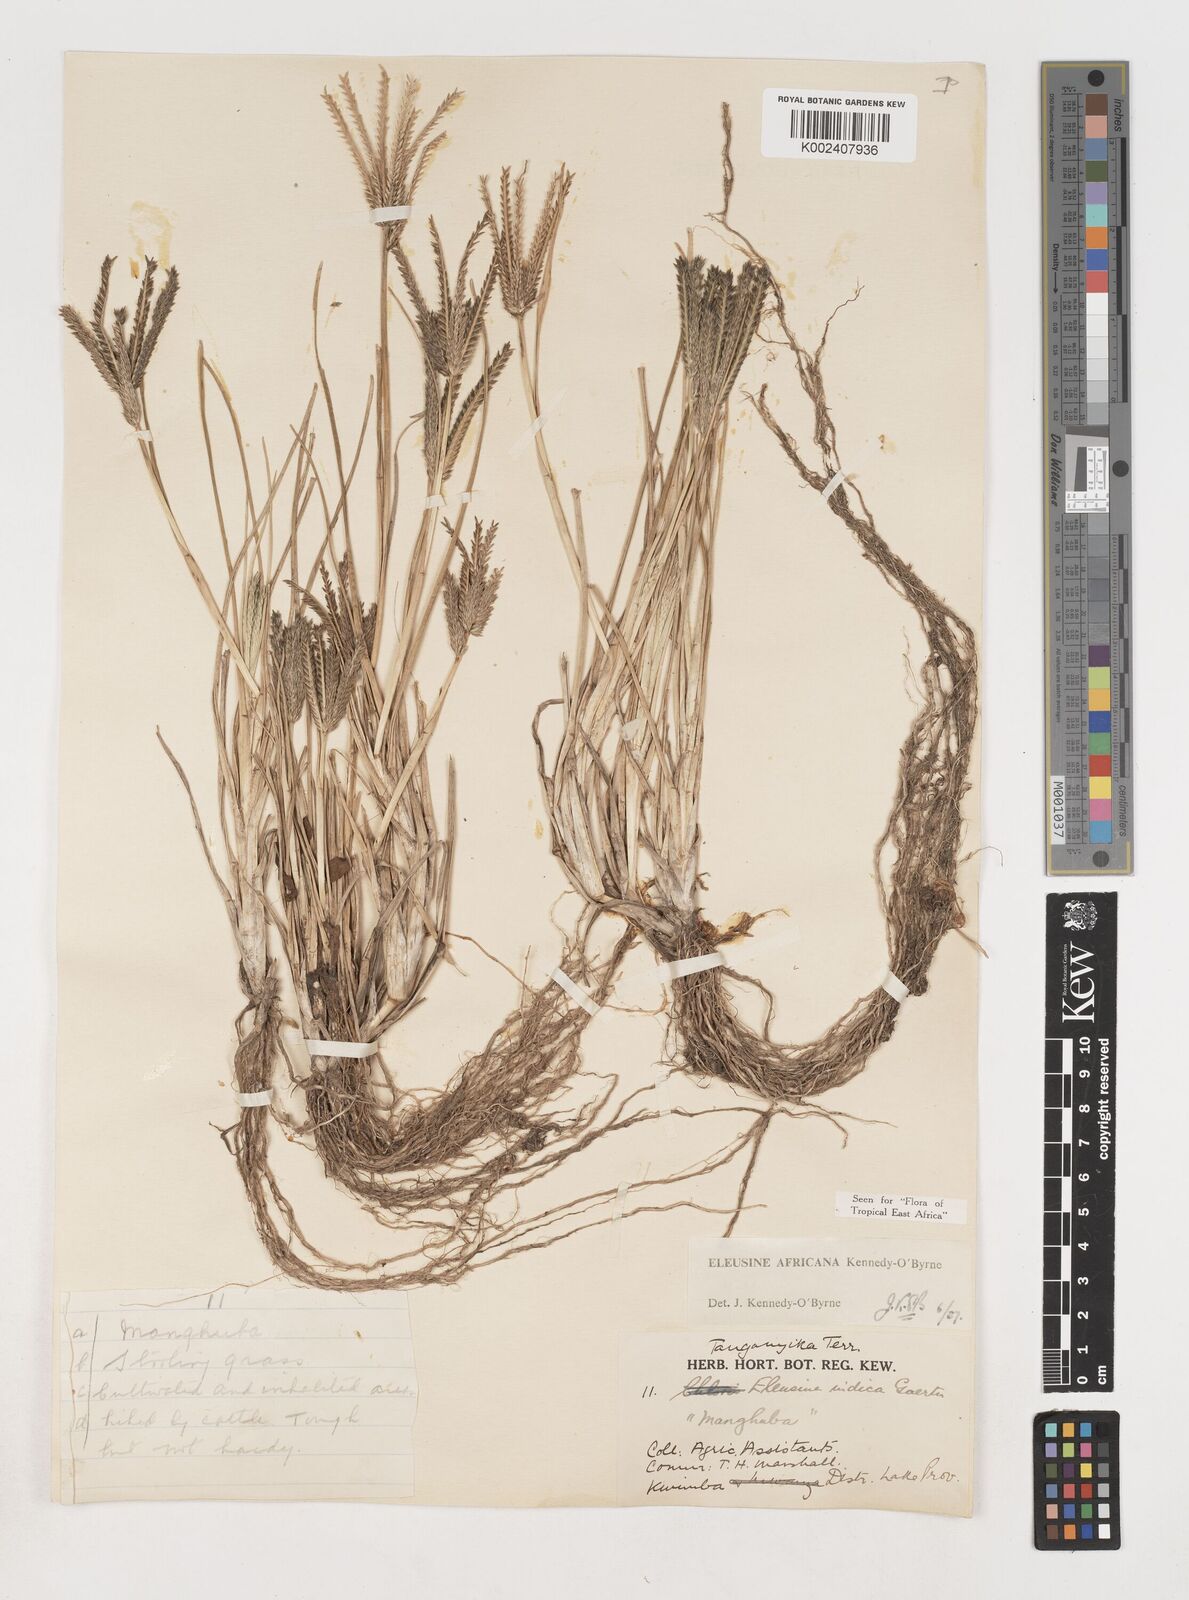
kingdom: Plantae
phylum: Tracheophyta
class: Liliopsida
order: Poales
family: Poaceae
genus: Eleusine
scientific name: Eleusine africana
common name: Wild african finger millet
